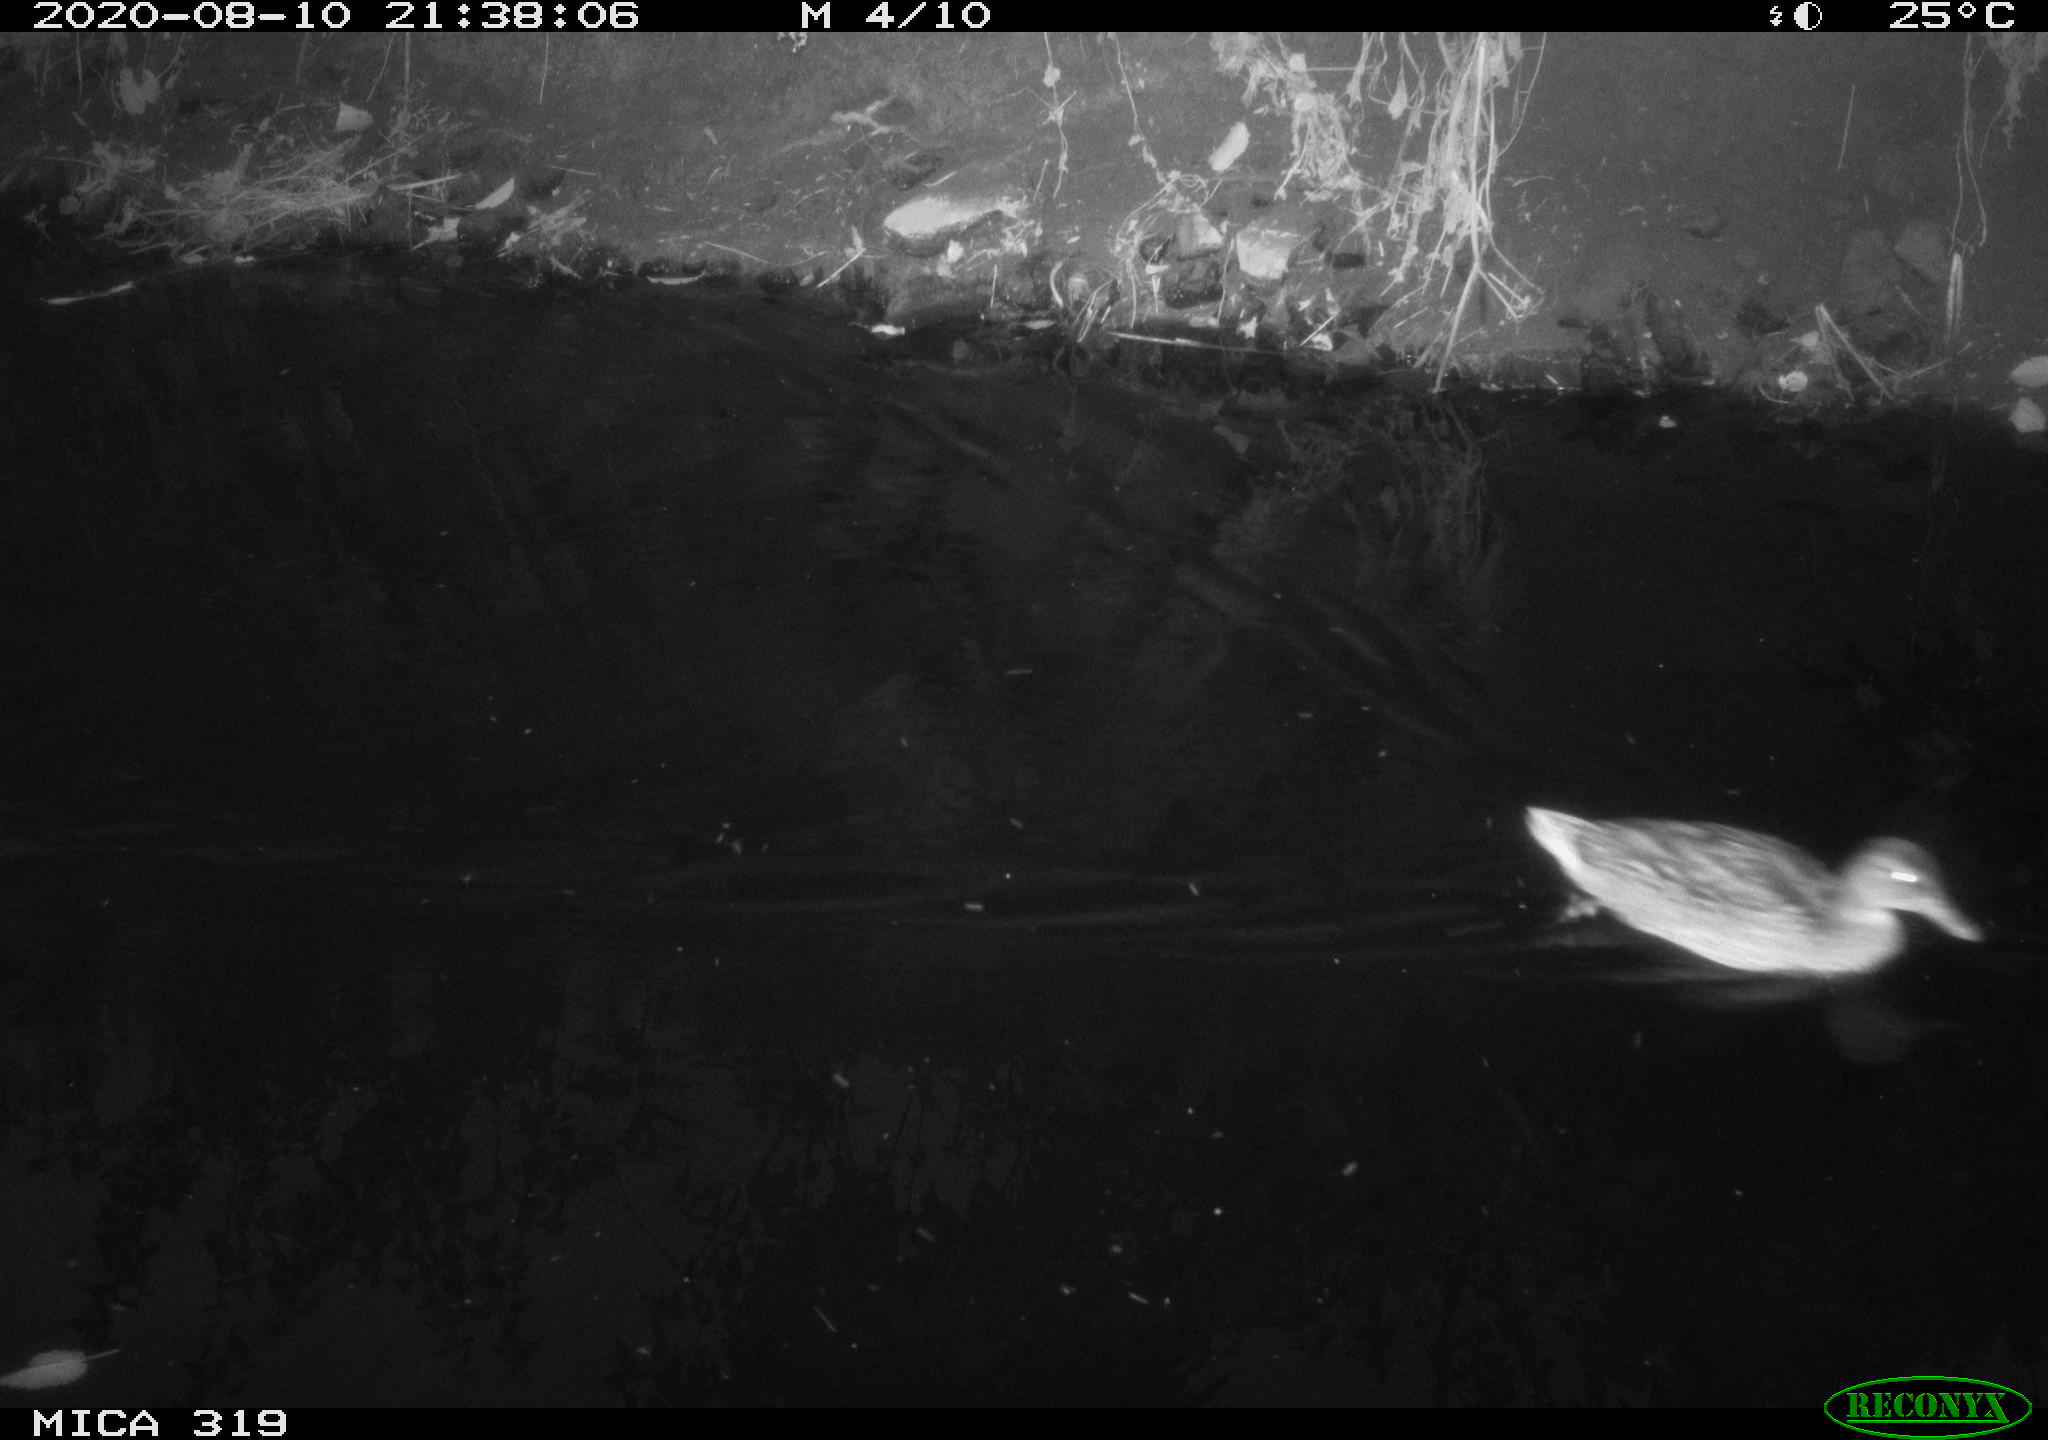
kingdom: Animalia
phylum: Chordata
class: Aves
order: Anseriformes
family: Anatidae
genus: Anas
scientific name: Anas platyrhynchos
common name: Mallard
